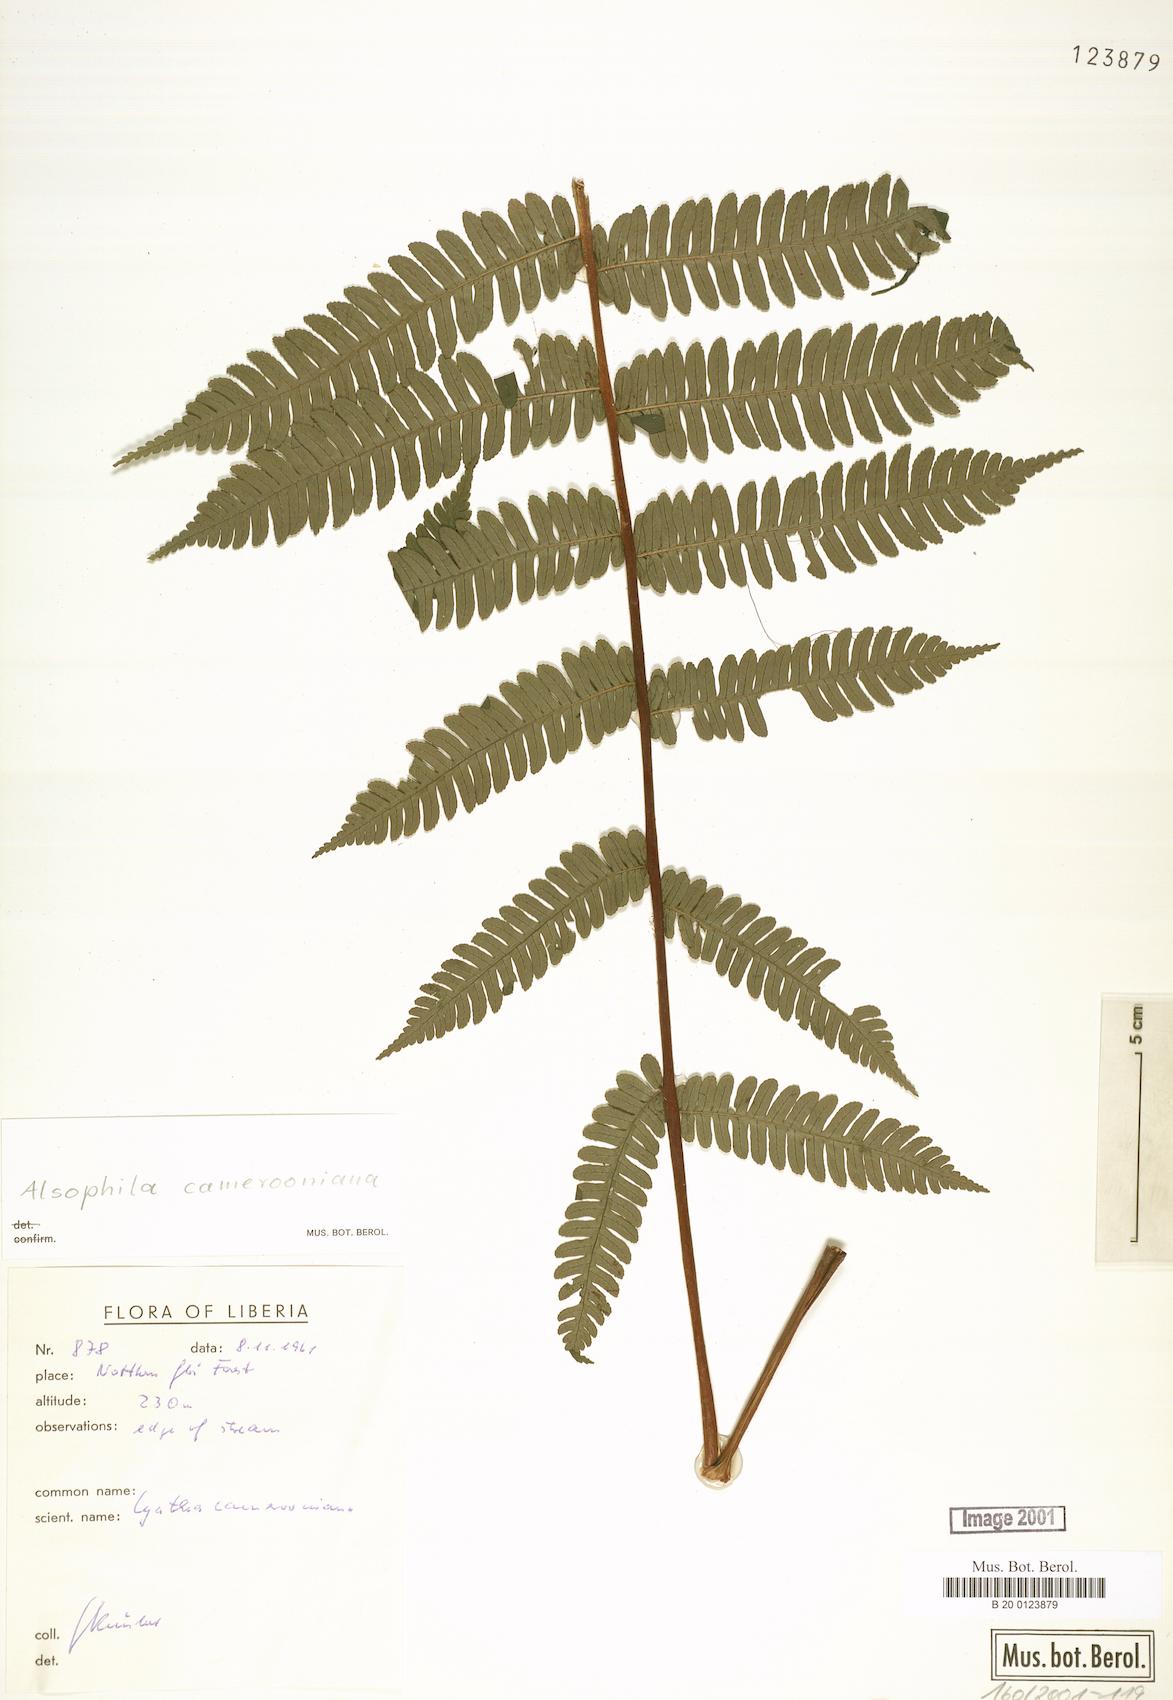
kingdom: Plantae
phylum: Tracheophyta
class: Polypodiopsida
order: Cyatheales
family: Cyatheaceae
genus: Alsophila
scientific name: Alsophila camerooniana
